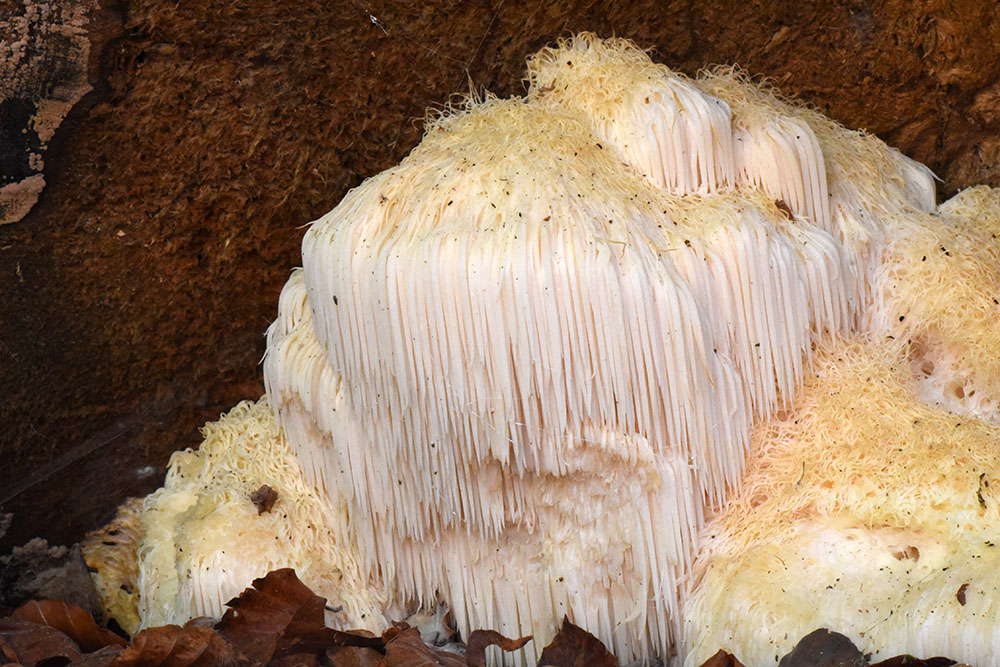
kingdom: Fungi
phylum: Basidiomycota
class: Agaricomycetes
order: Russulales
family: Hericiaceae
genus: Hericium
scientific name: Hericium erinaceus
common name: Bearded tooth
